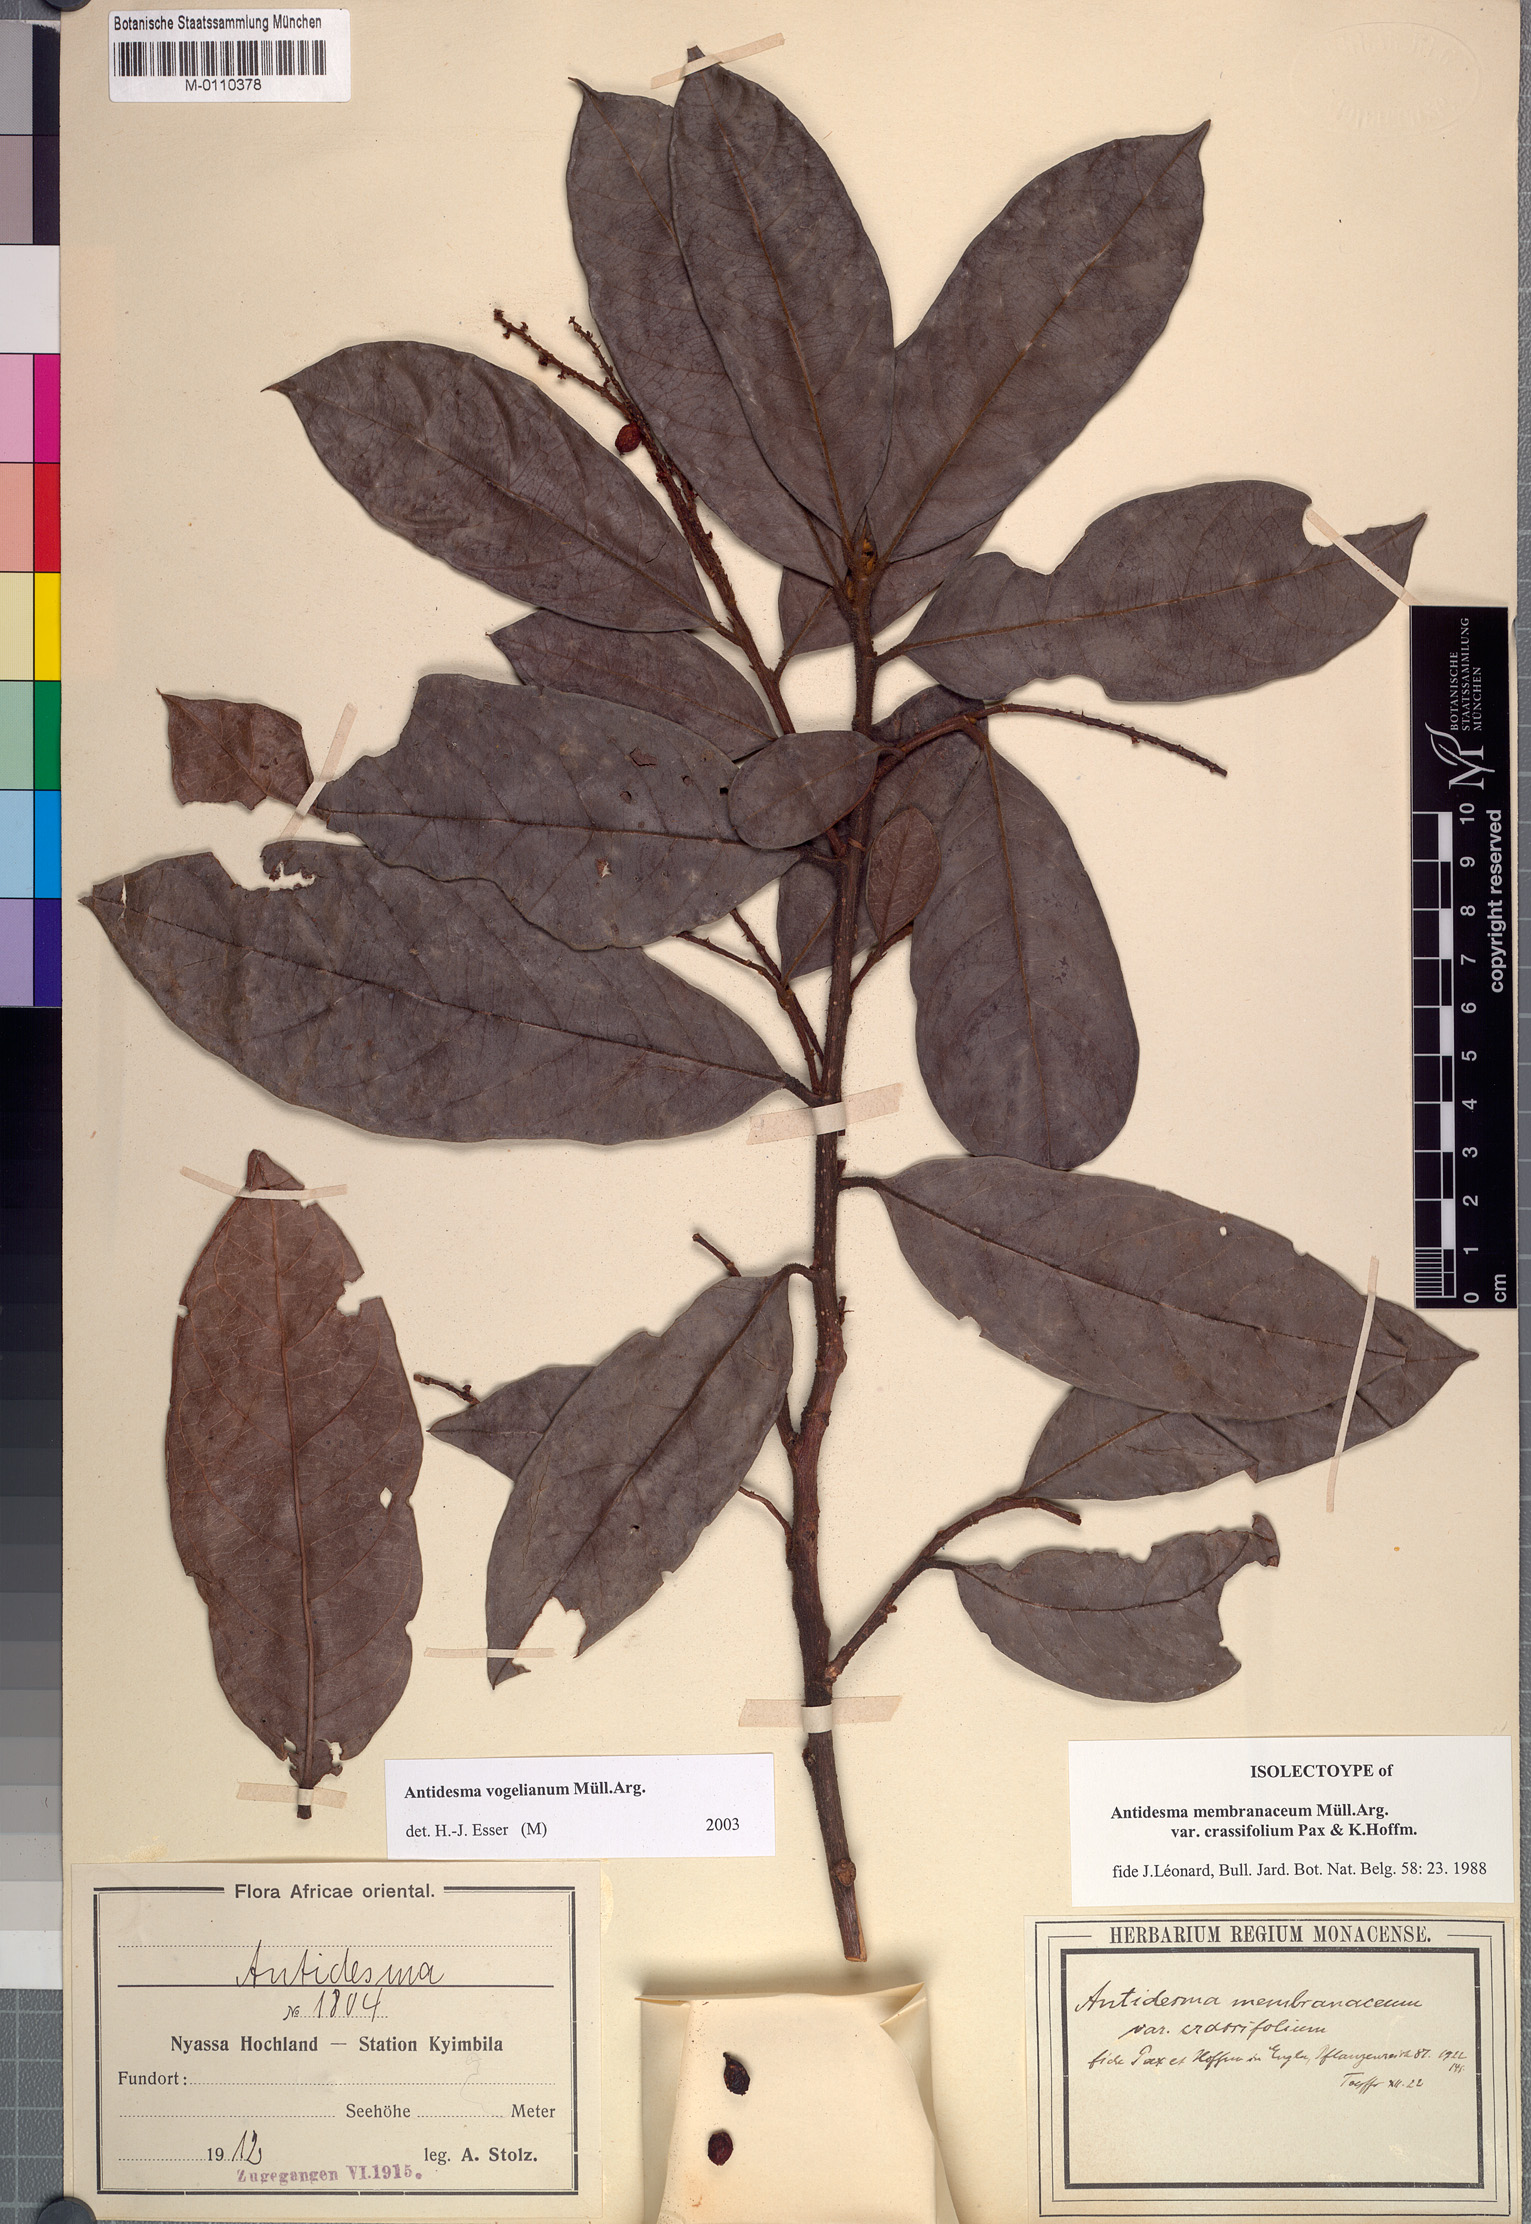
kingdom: Plantae
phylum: Tracheophyta
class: Magnoliopsida
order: Malpighiales
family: Phyllanthaceae
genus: Antidesma
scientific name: Antidesma vogelianum
